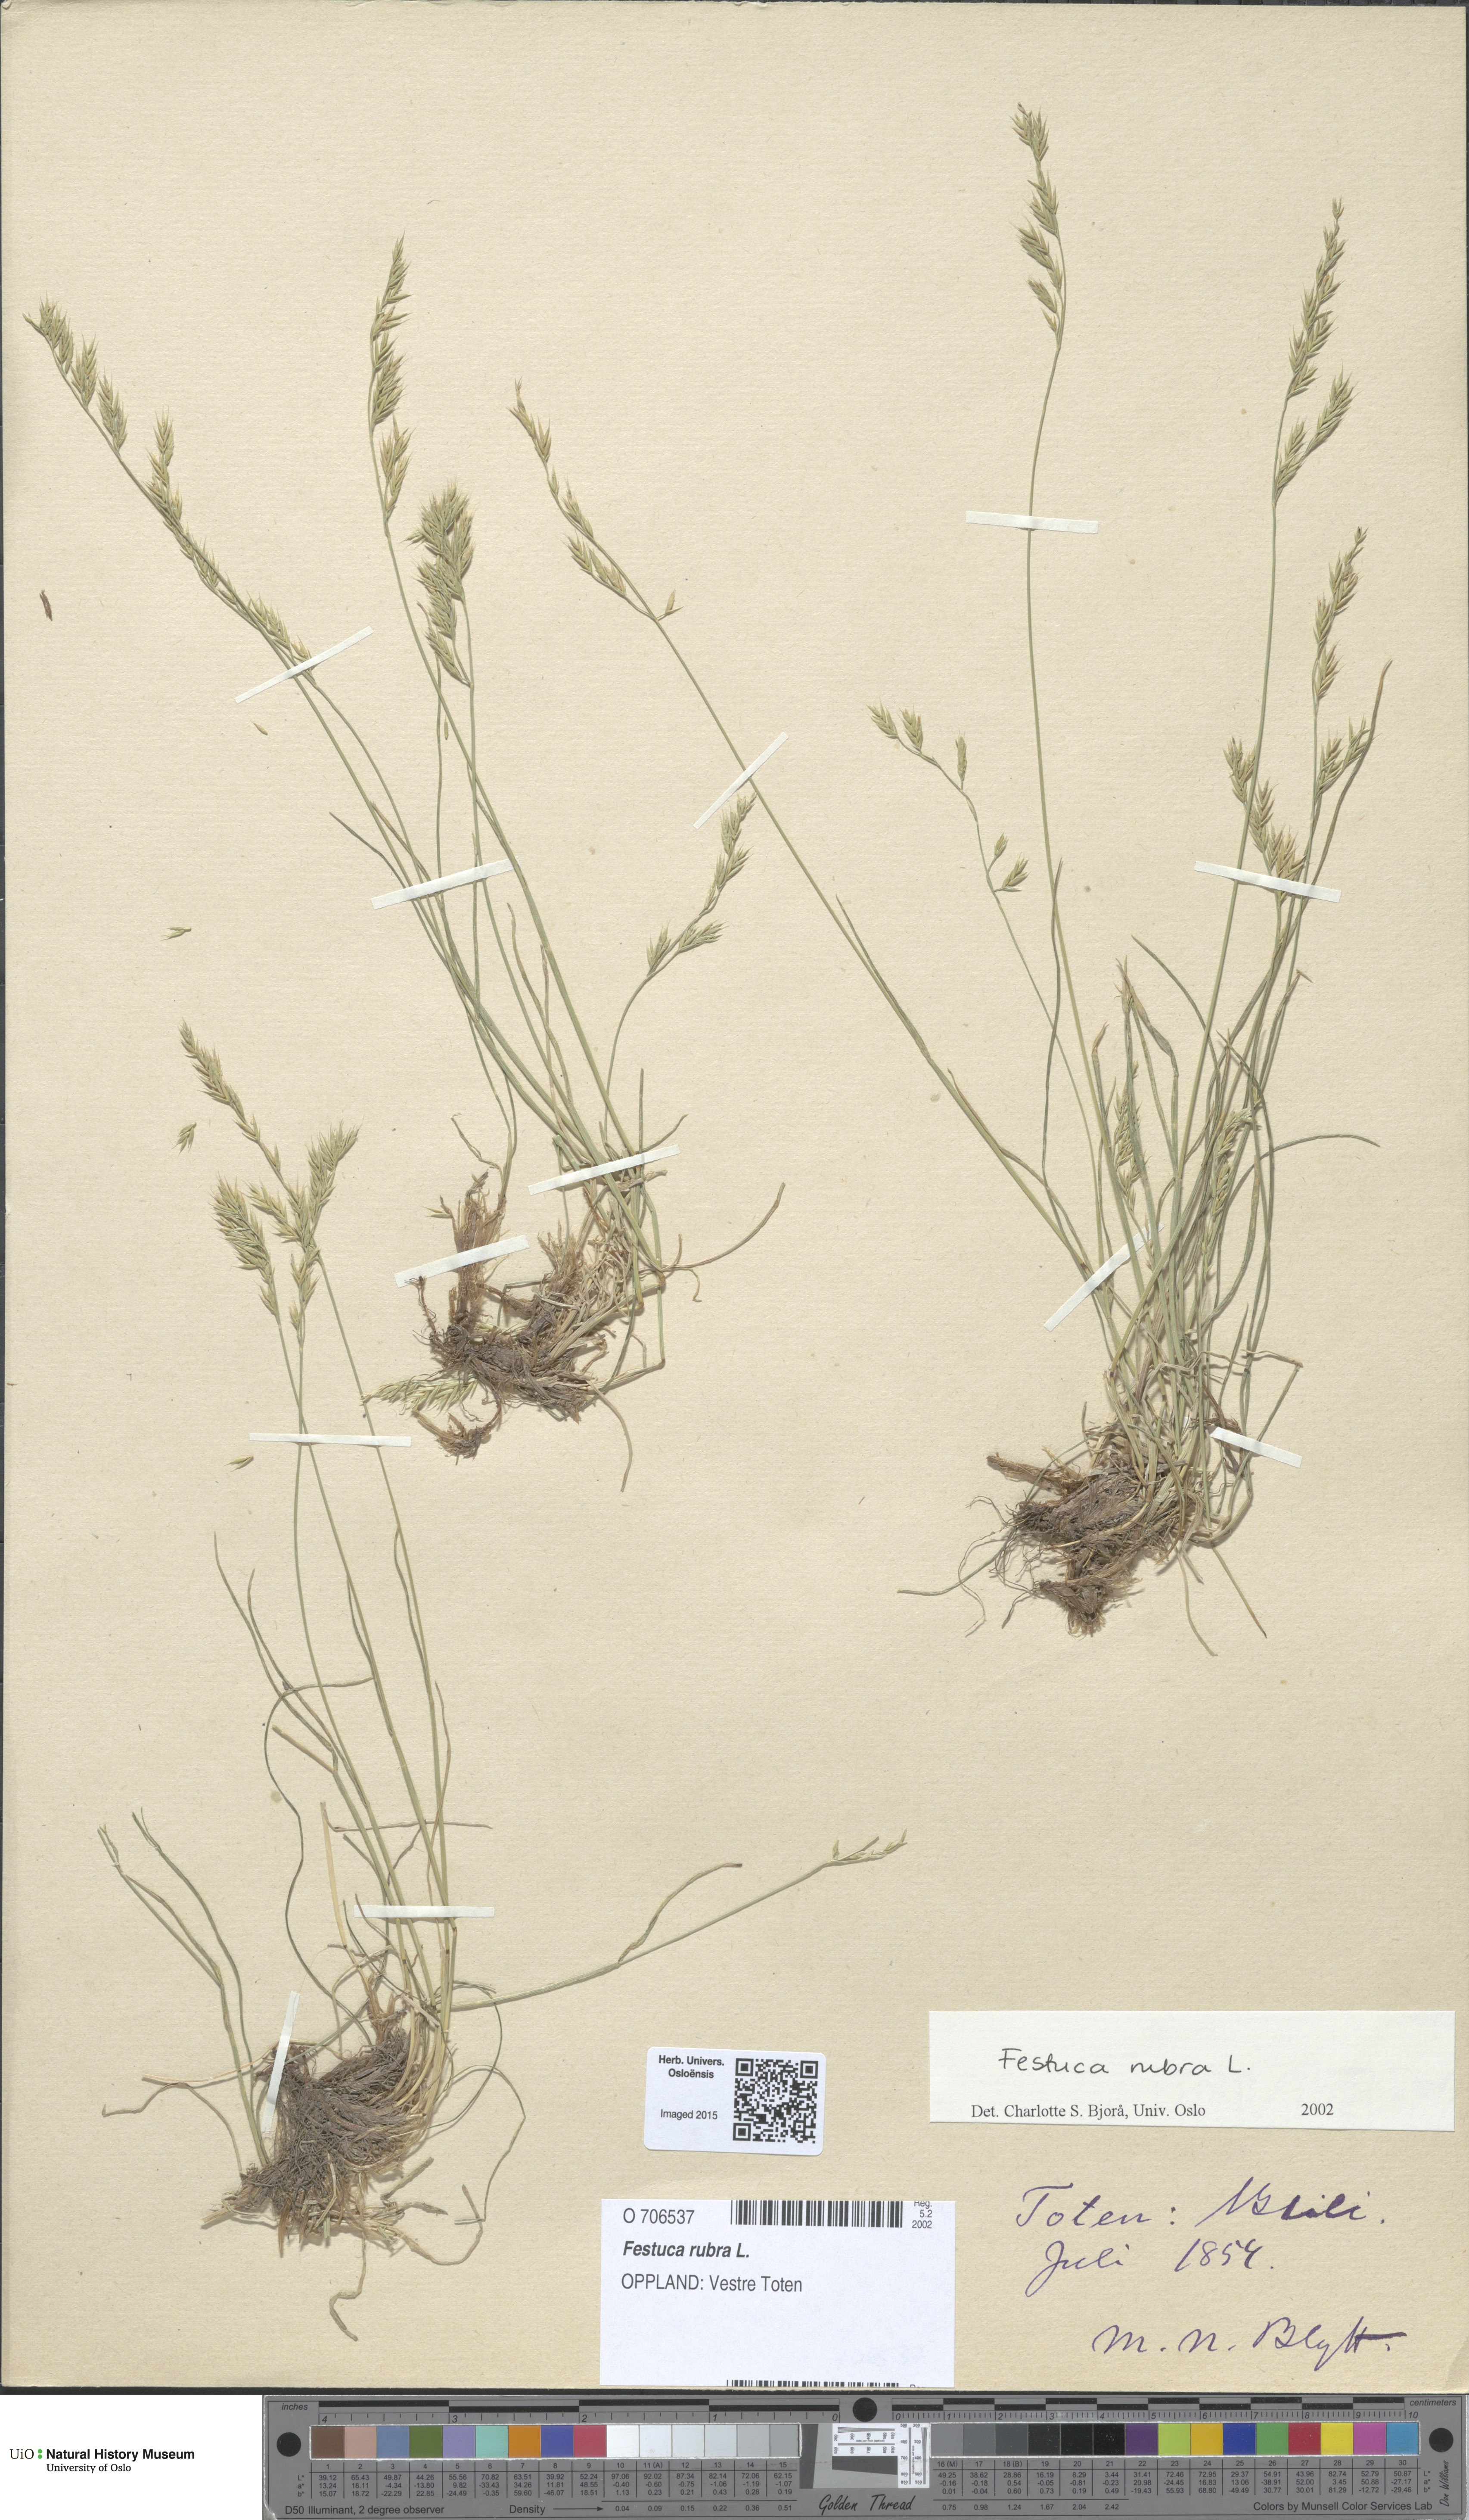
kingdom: Plantae
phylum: Tracheophyta
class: Liliopsida
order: Poales
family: Poaceae
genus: Festuca
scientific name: Festuca rubra
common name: Red fescue
